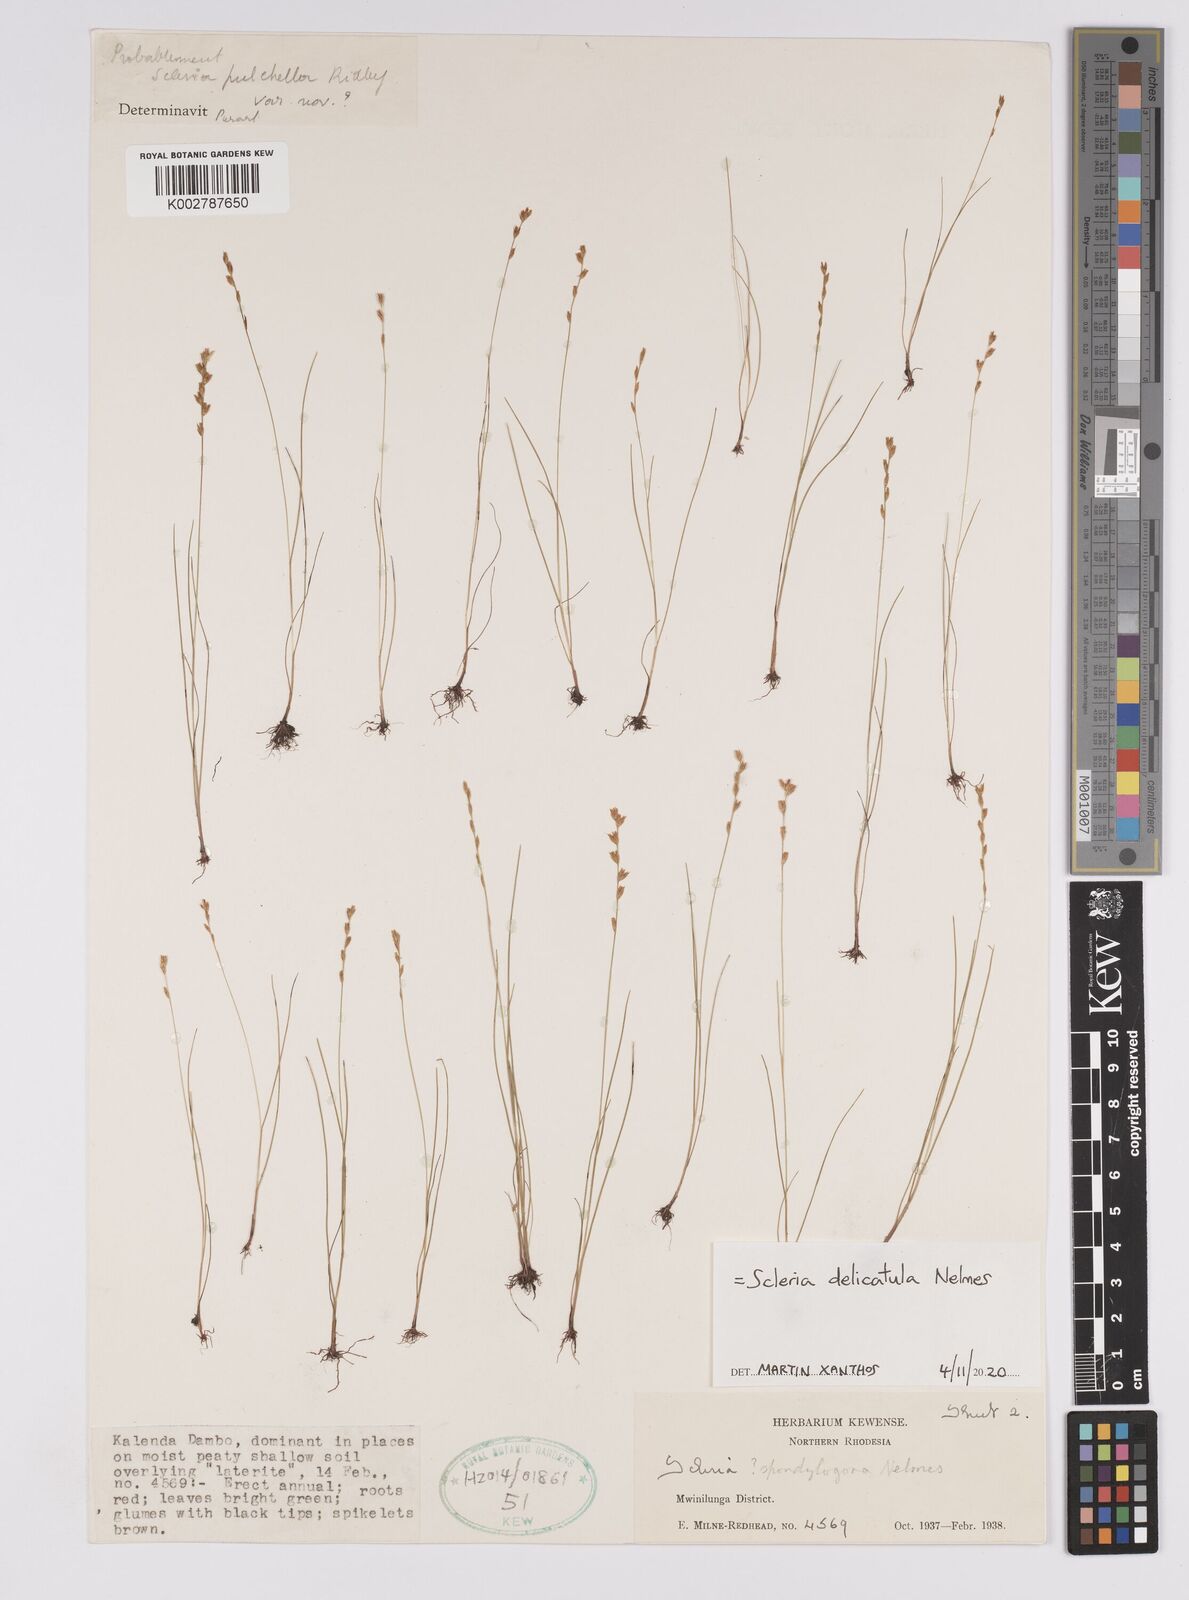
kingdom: Plantae
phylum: Tracheophyta
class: Liliopsida
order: Poales
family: Cyperaceae
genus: Scleria
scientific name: Scleria delicatula
